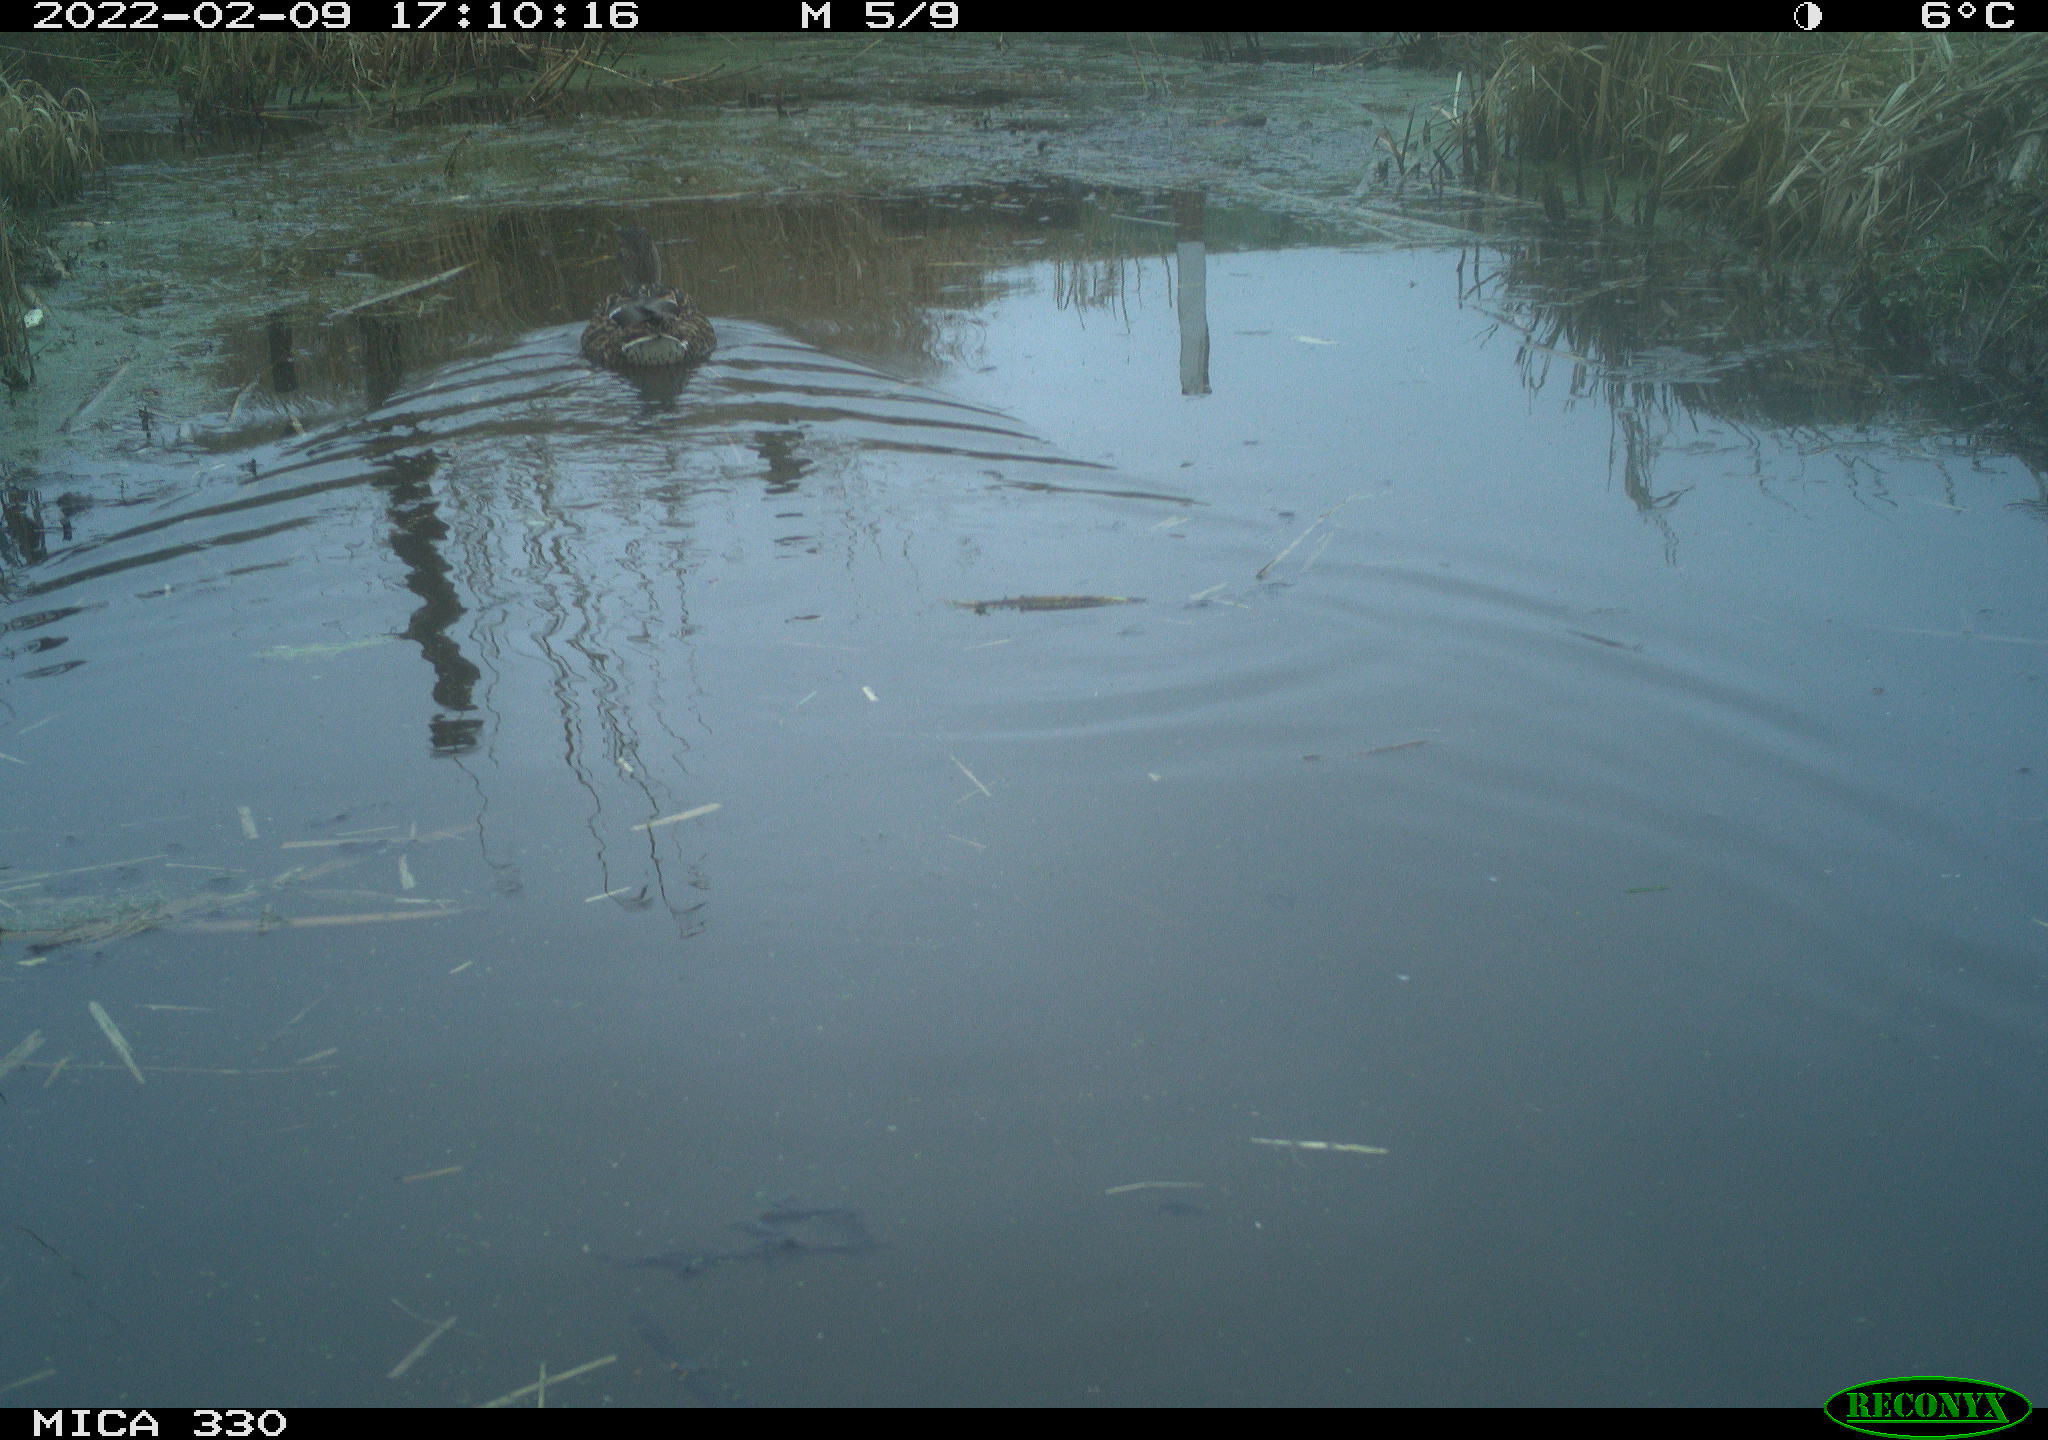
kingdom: Animalia
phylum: Chordata
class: Aves
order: Anseriformes
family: Anatidae
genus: Anas
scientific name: Anas platyrhynchos
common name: Mallard
